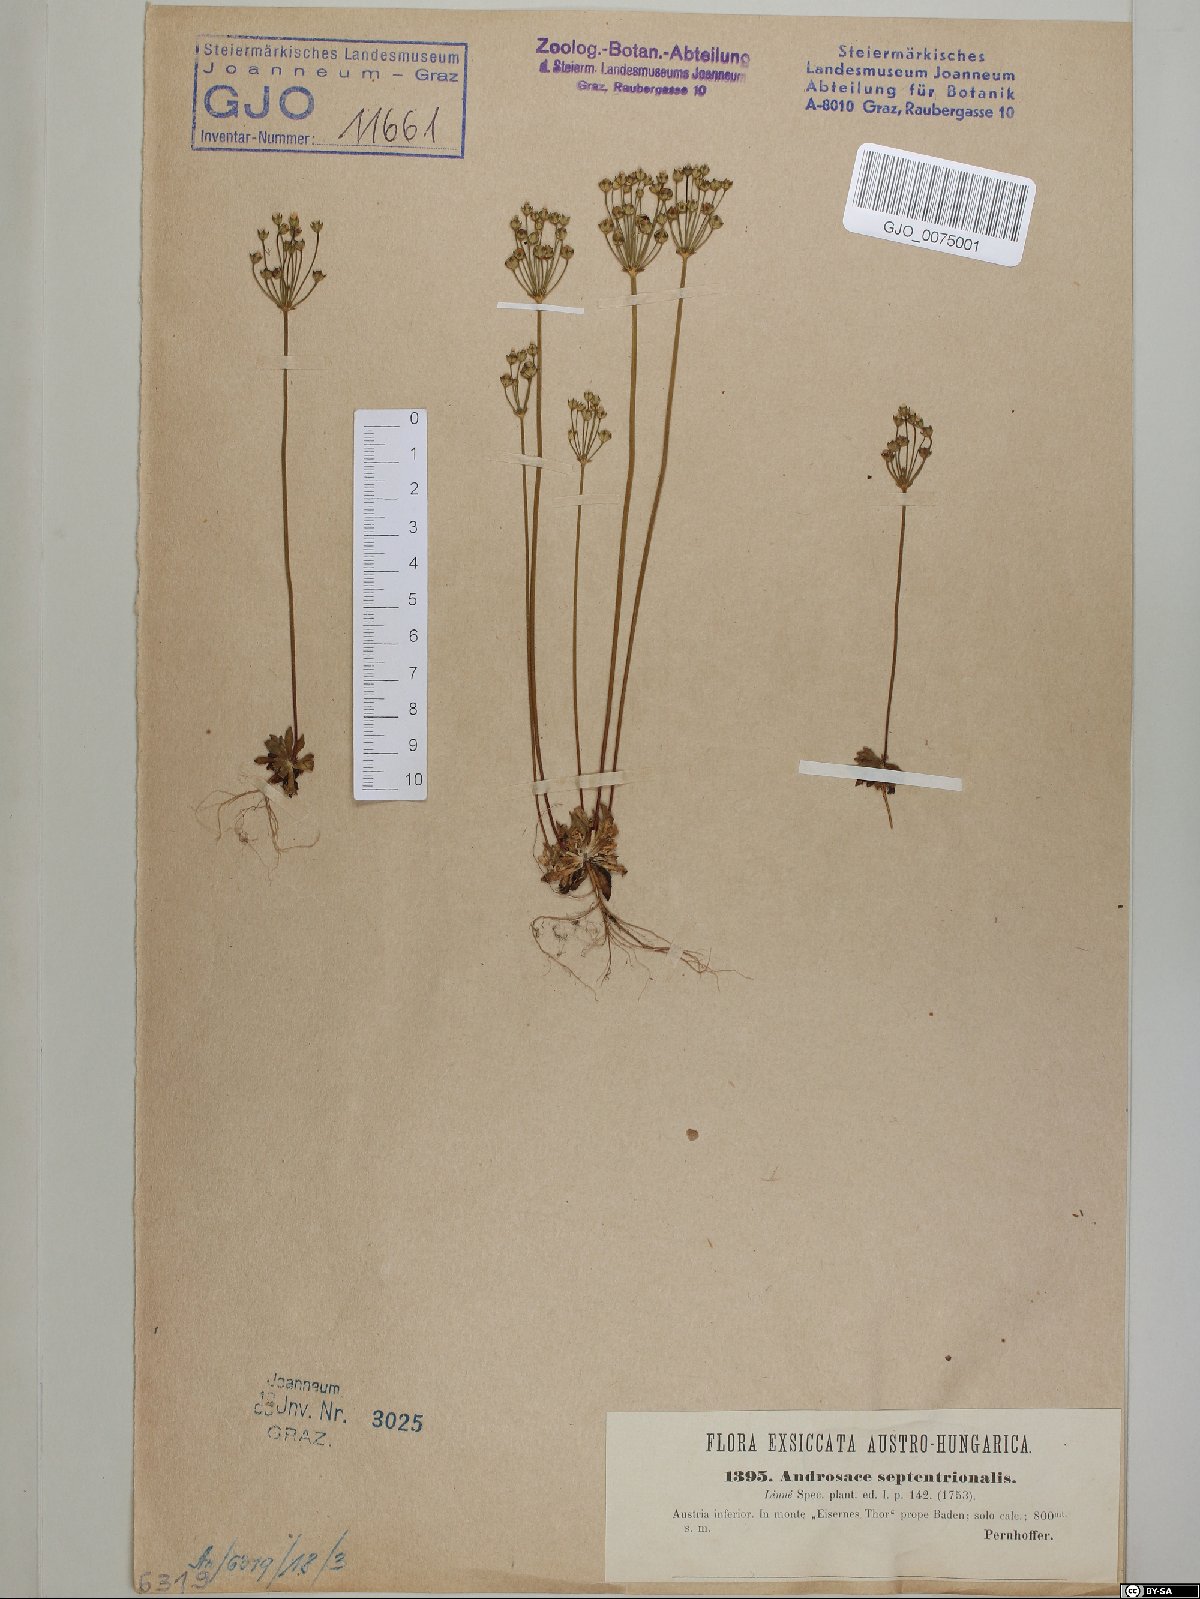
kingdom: Plantae
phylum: Tracheophyta
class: Magnoliopsida
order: Ericales
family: Primulaceae
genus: Androsace
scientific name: Androsace septentrionalis
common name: Hairy northern fairy-candelabra
